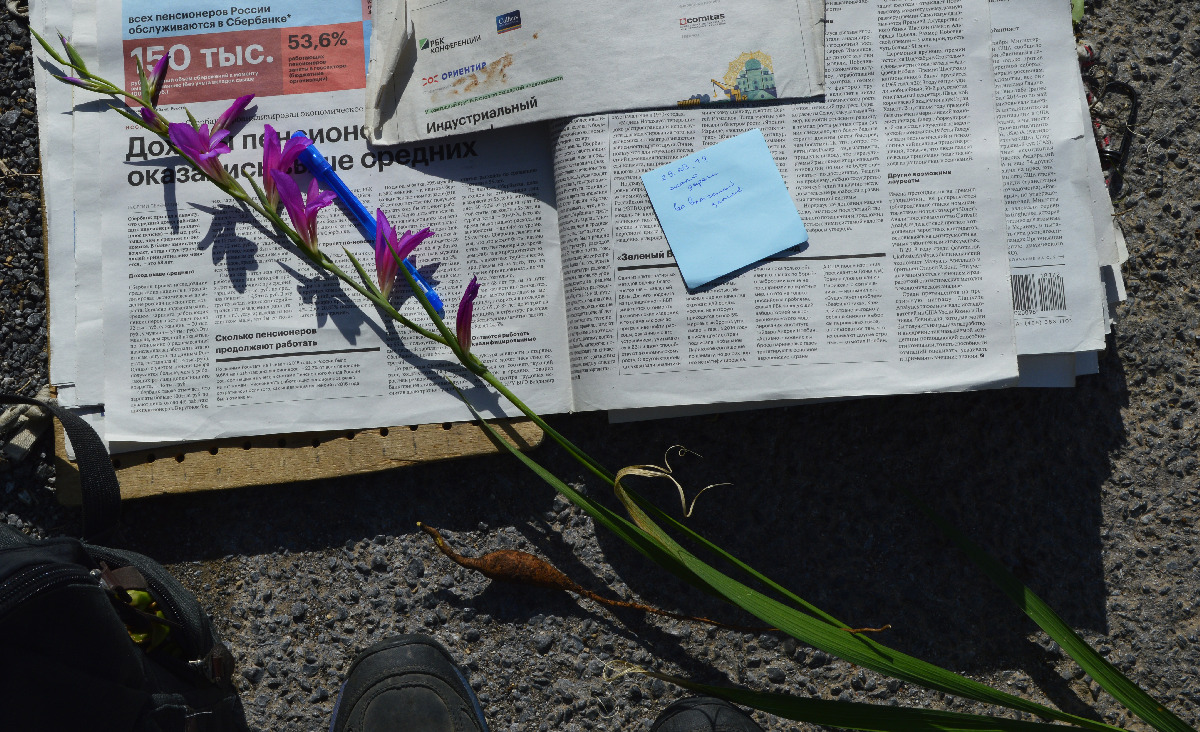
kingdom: Plantae
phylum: Tracheophyta
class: Liliopsida
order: Asparagales
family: Iridaceae
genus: Gladiolus
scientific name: Gladiolus italicus
